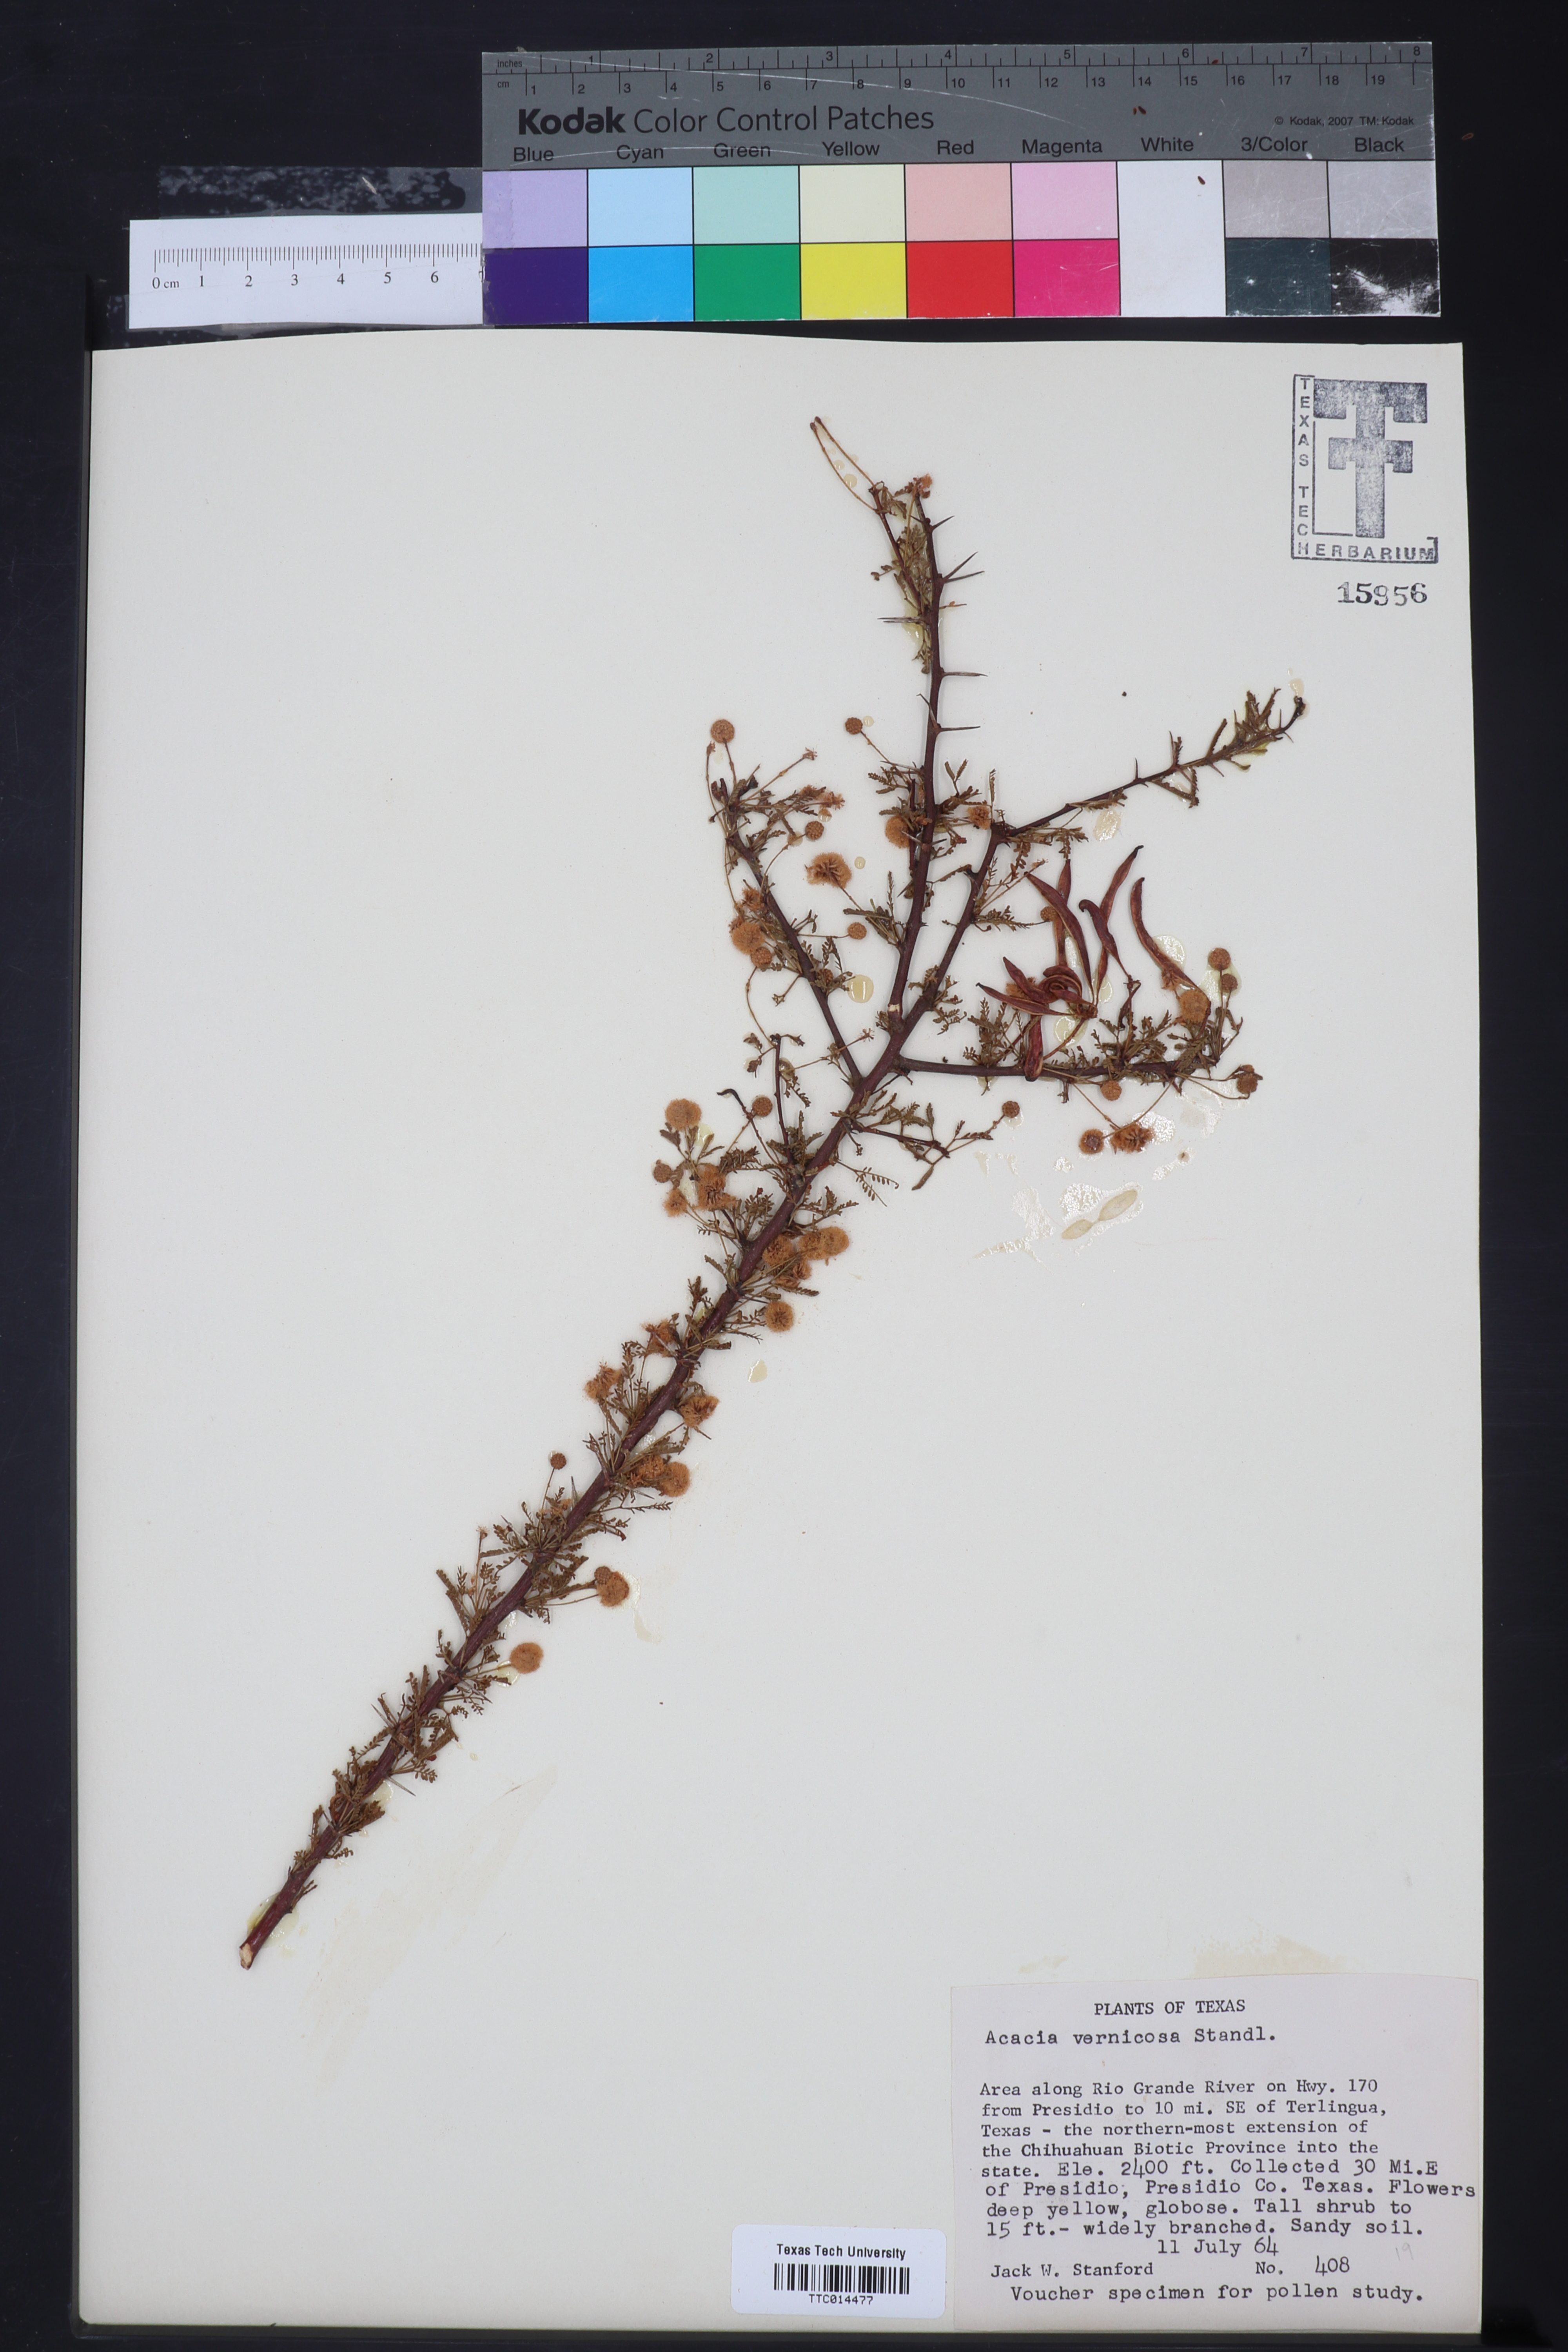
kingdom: Plantae
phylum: Tracheophyta
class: Magnoliopsida
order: Fabales
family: Fabaceae
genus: Vachellia
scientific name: Vachellia vernicosa
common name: Viscid acacia
